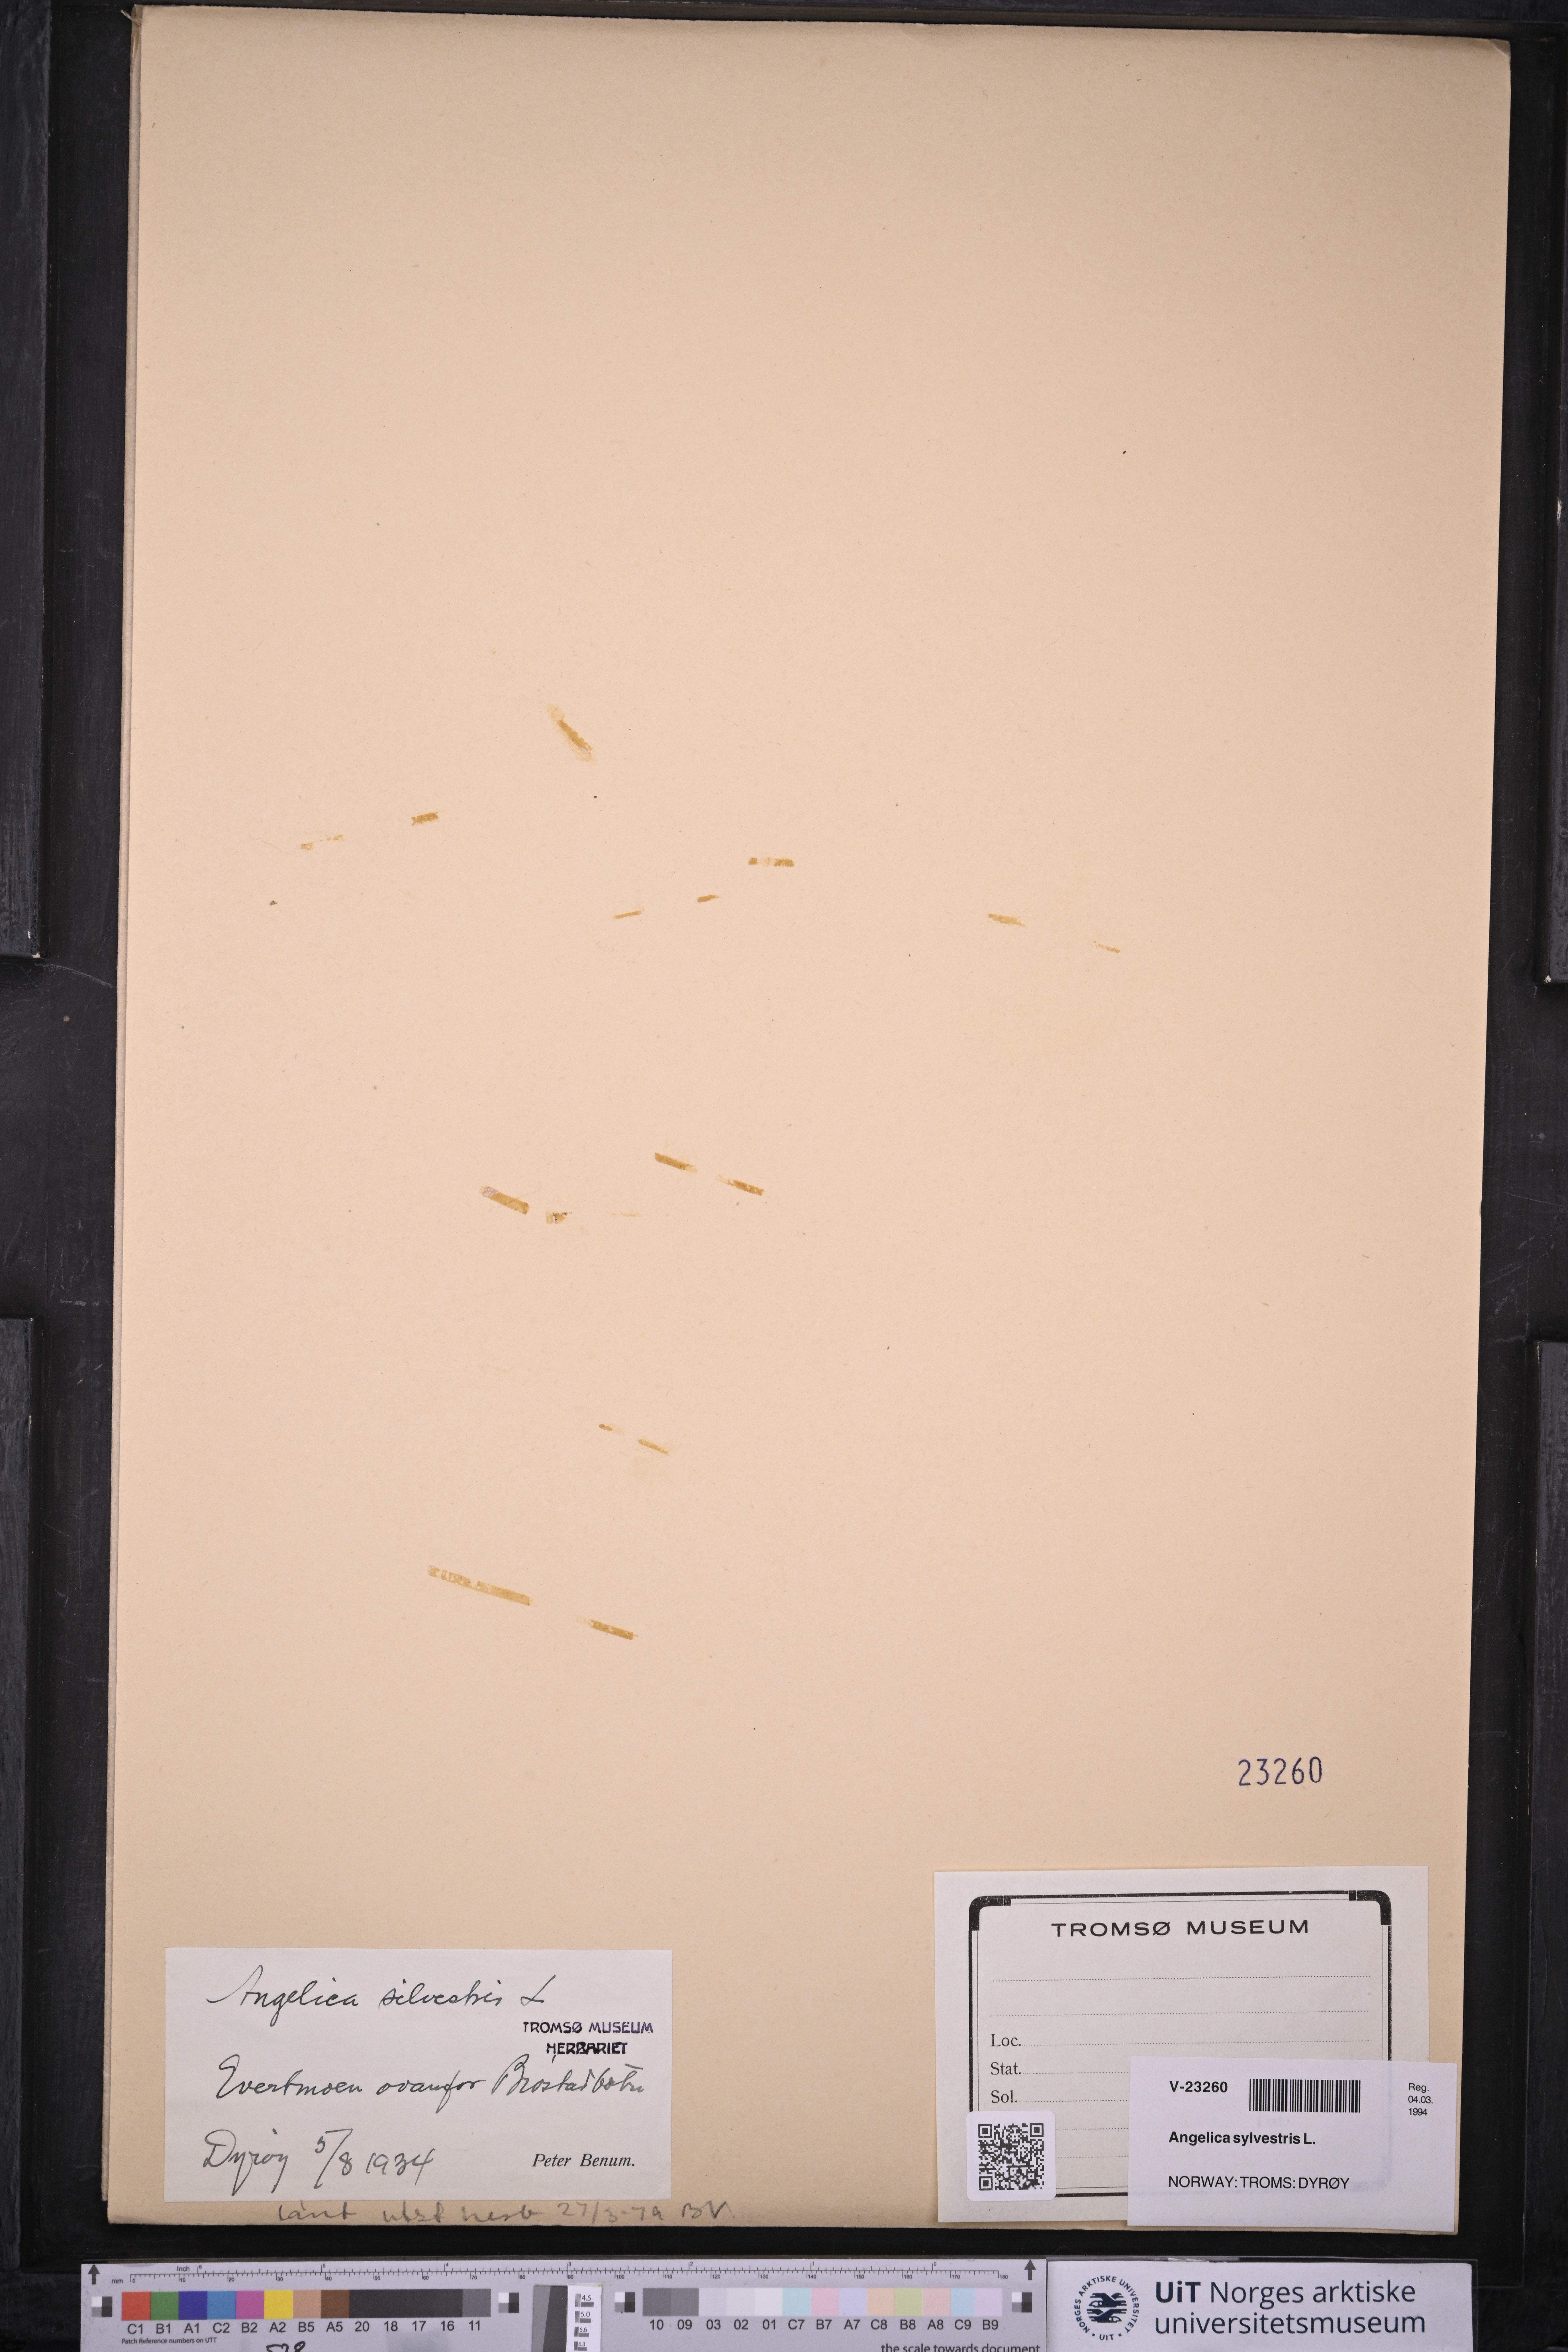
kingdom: Plantae
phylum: Tracheophyta
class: Magnoliopsida
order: Apiales
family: Apiaceae
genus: Angelica
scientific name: Angelica sylvestris
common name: Wild angelica
